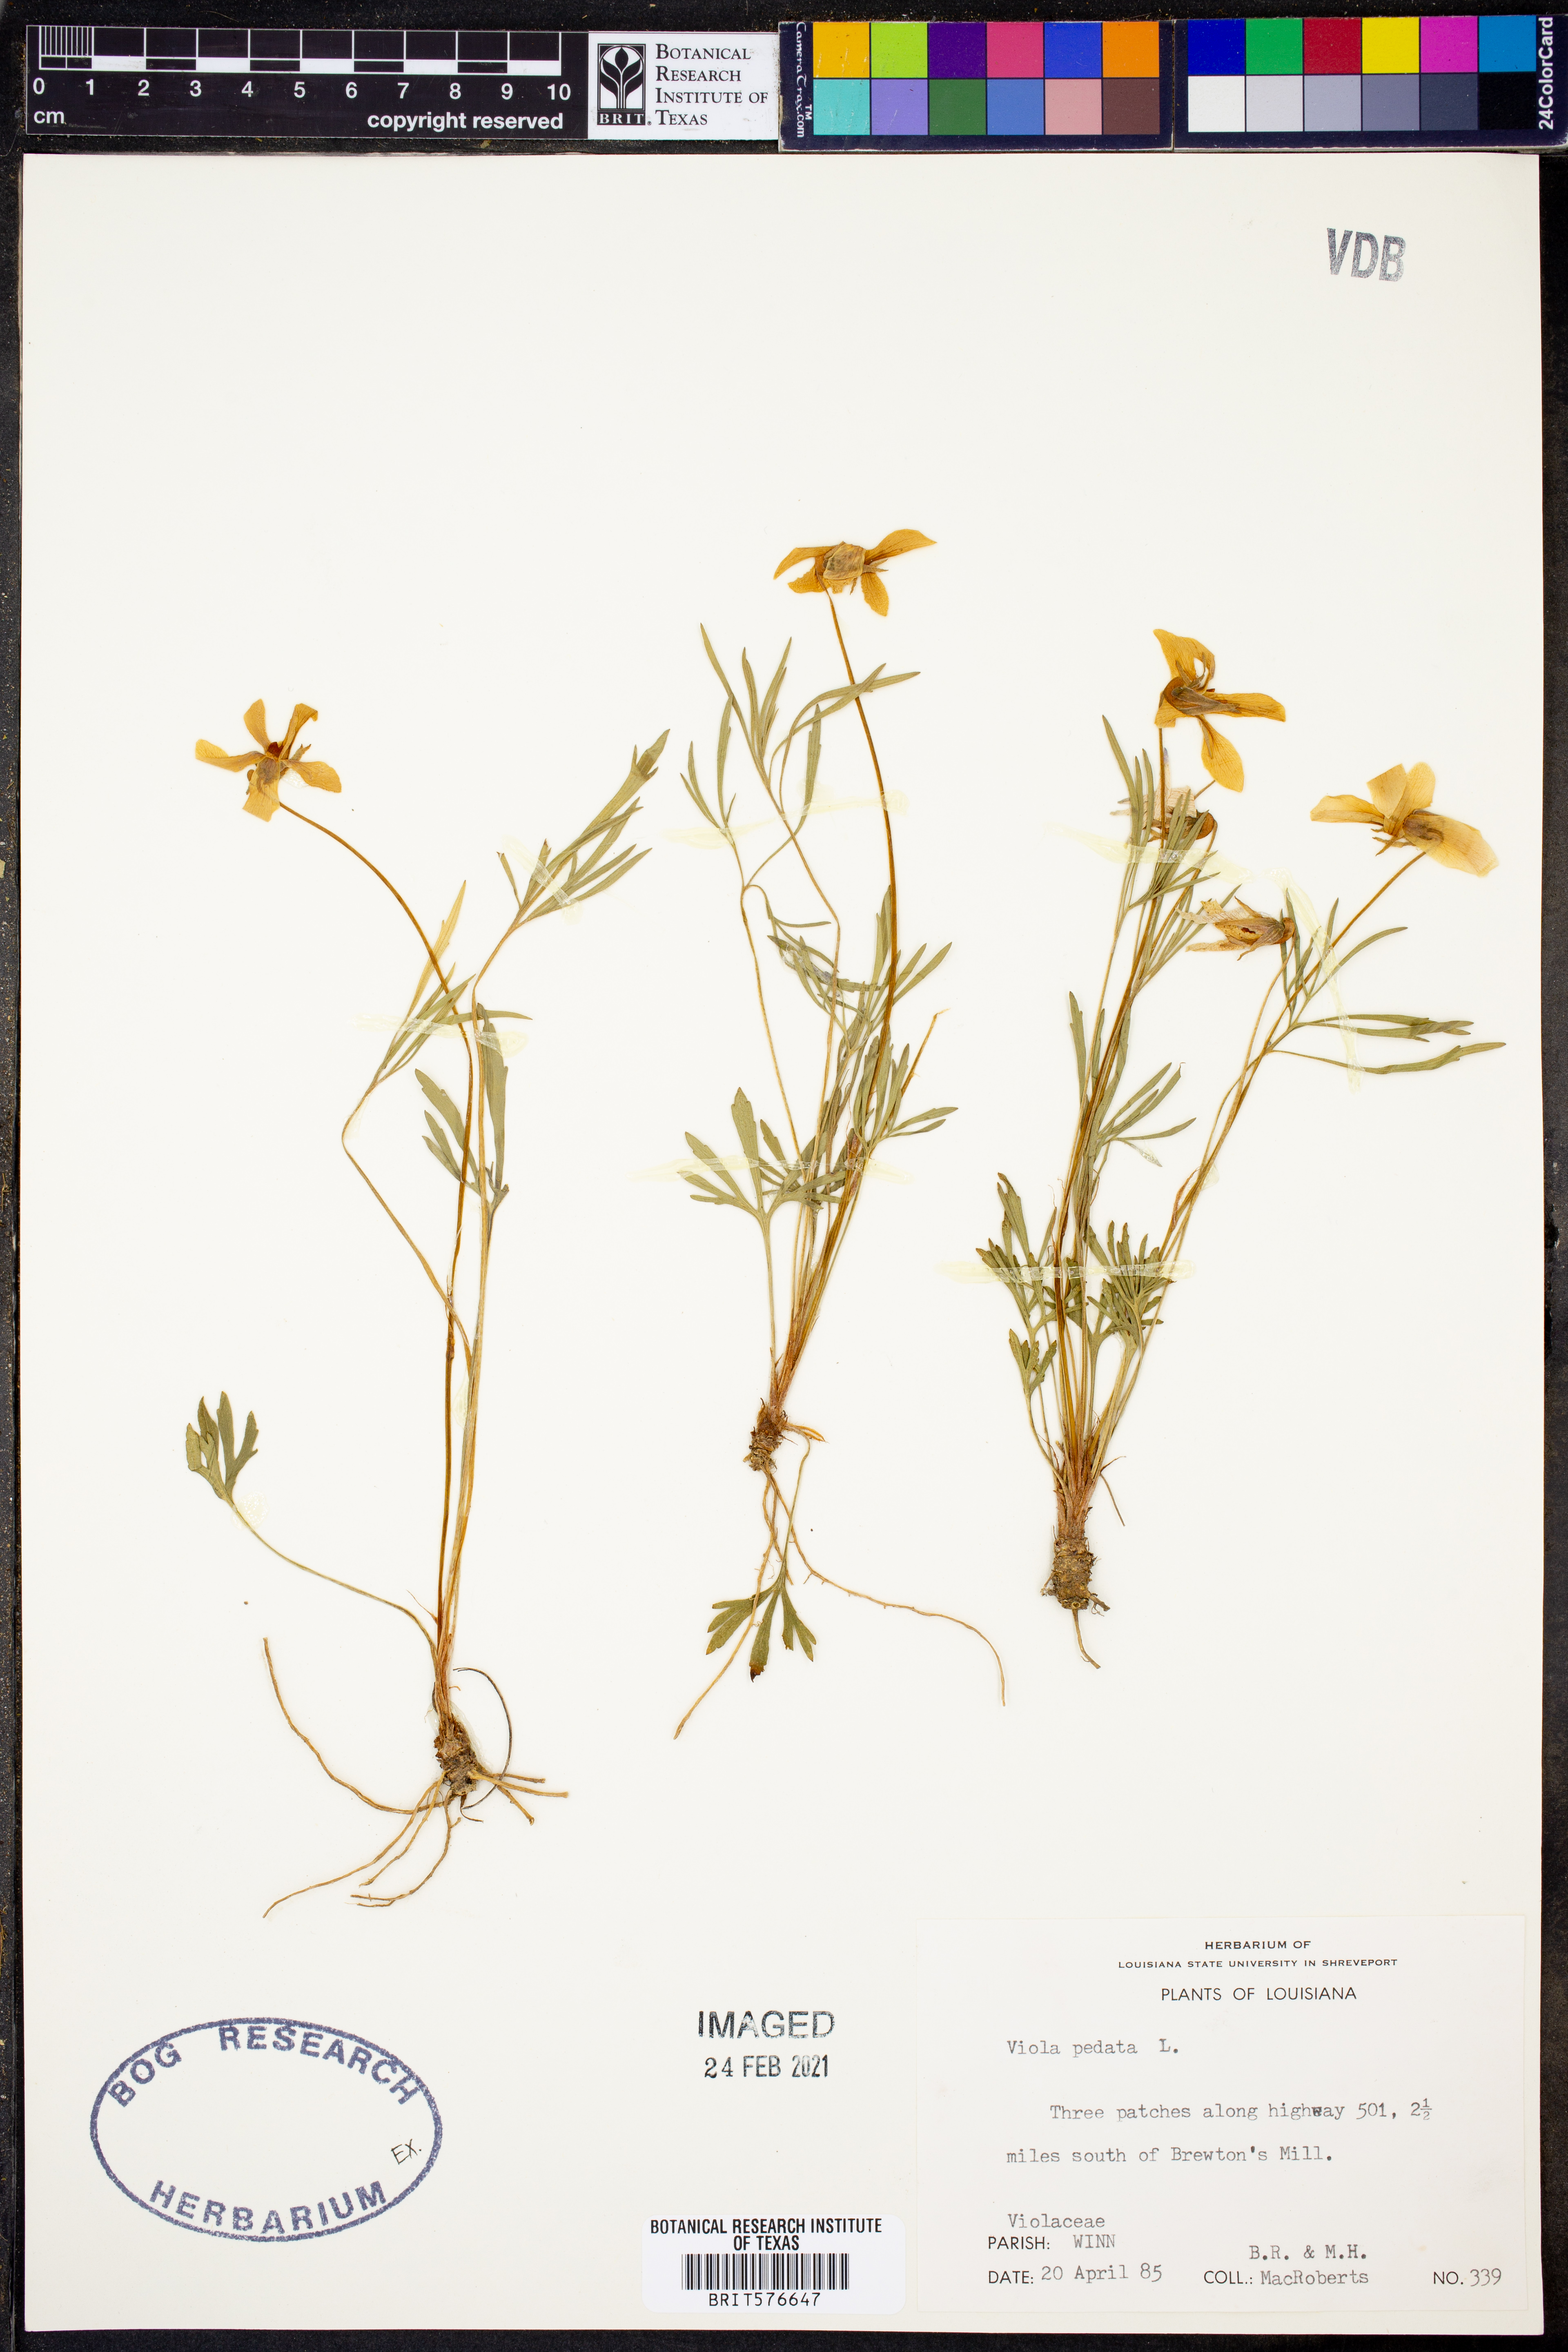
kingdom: Plantae
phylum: Tracheophyta
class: Magnoliopsida
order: Malpighiales
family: Violaceae
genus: Viola
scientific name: Viola pedata
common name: Pansy violet
